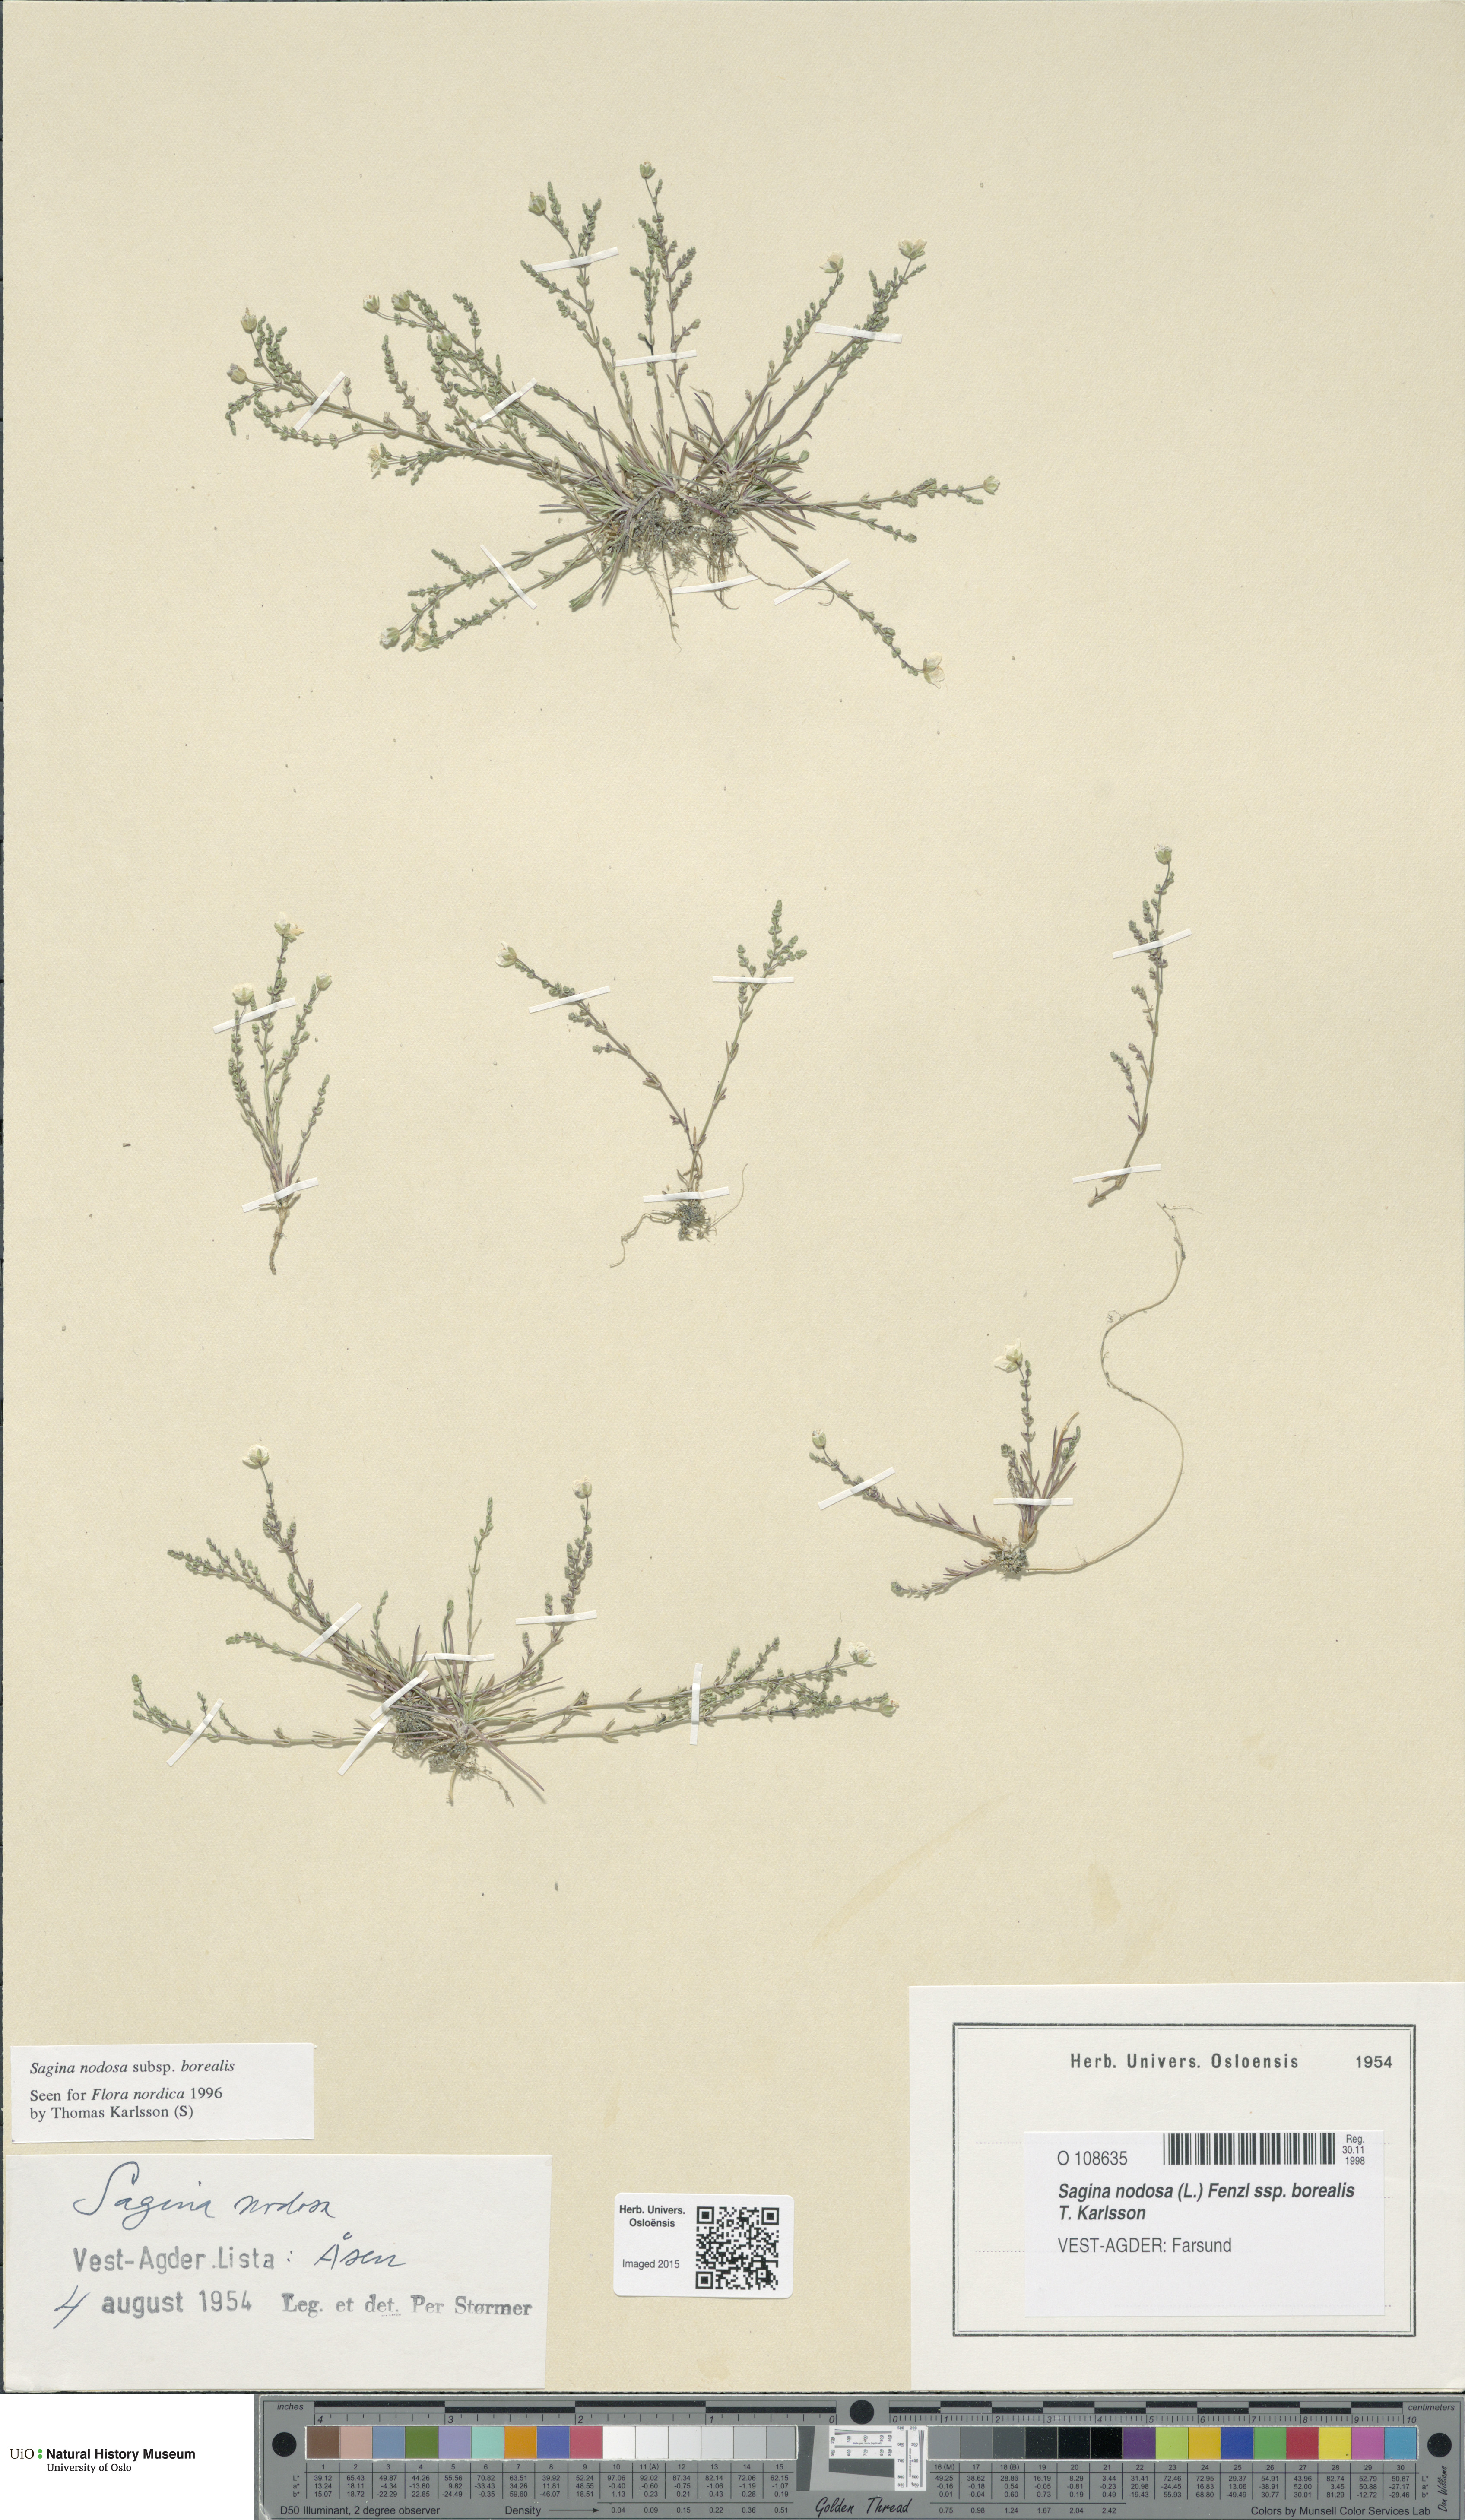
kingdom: Plantae
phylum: Tracheophyta
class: Magnoliopsida
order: Caryophyllales
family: Caryophyllaceae
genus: Sagina
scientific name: Sagina nodosa
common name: Knotted pearlwort
